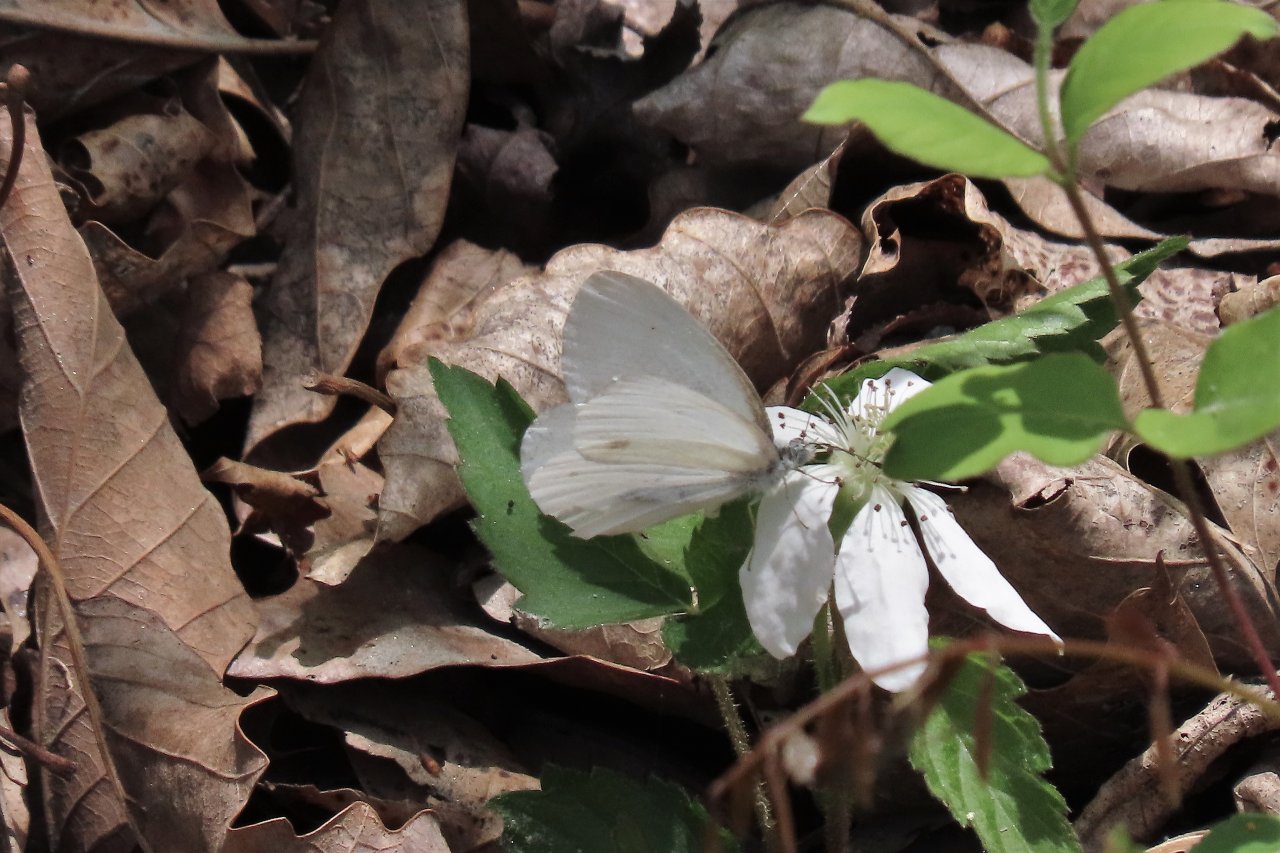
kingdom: Animalia
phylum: Arthropoda
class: Insecta
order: Lepidoptera
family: Pieridae
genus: Pieris
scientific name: Pieris rapae
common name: Cabbage White
